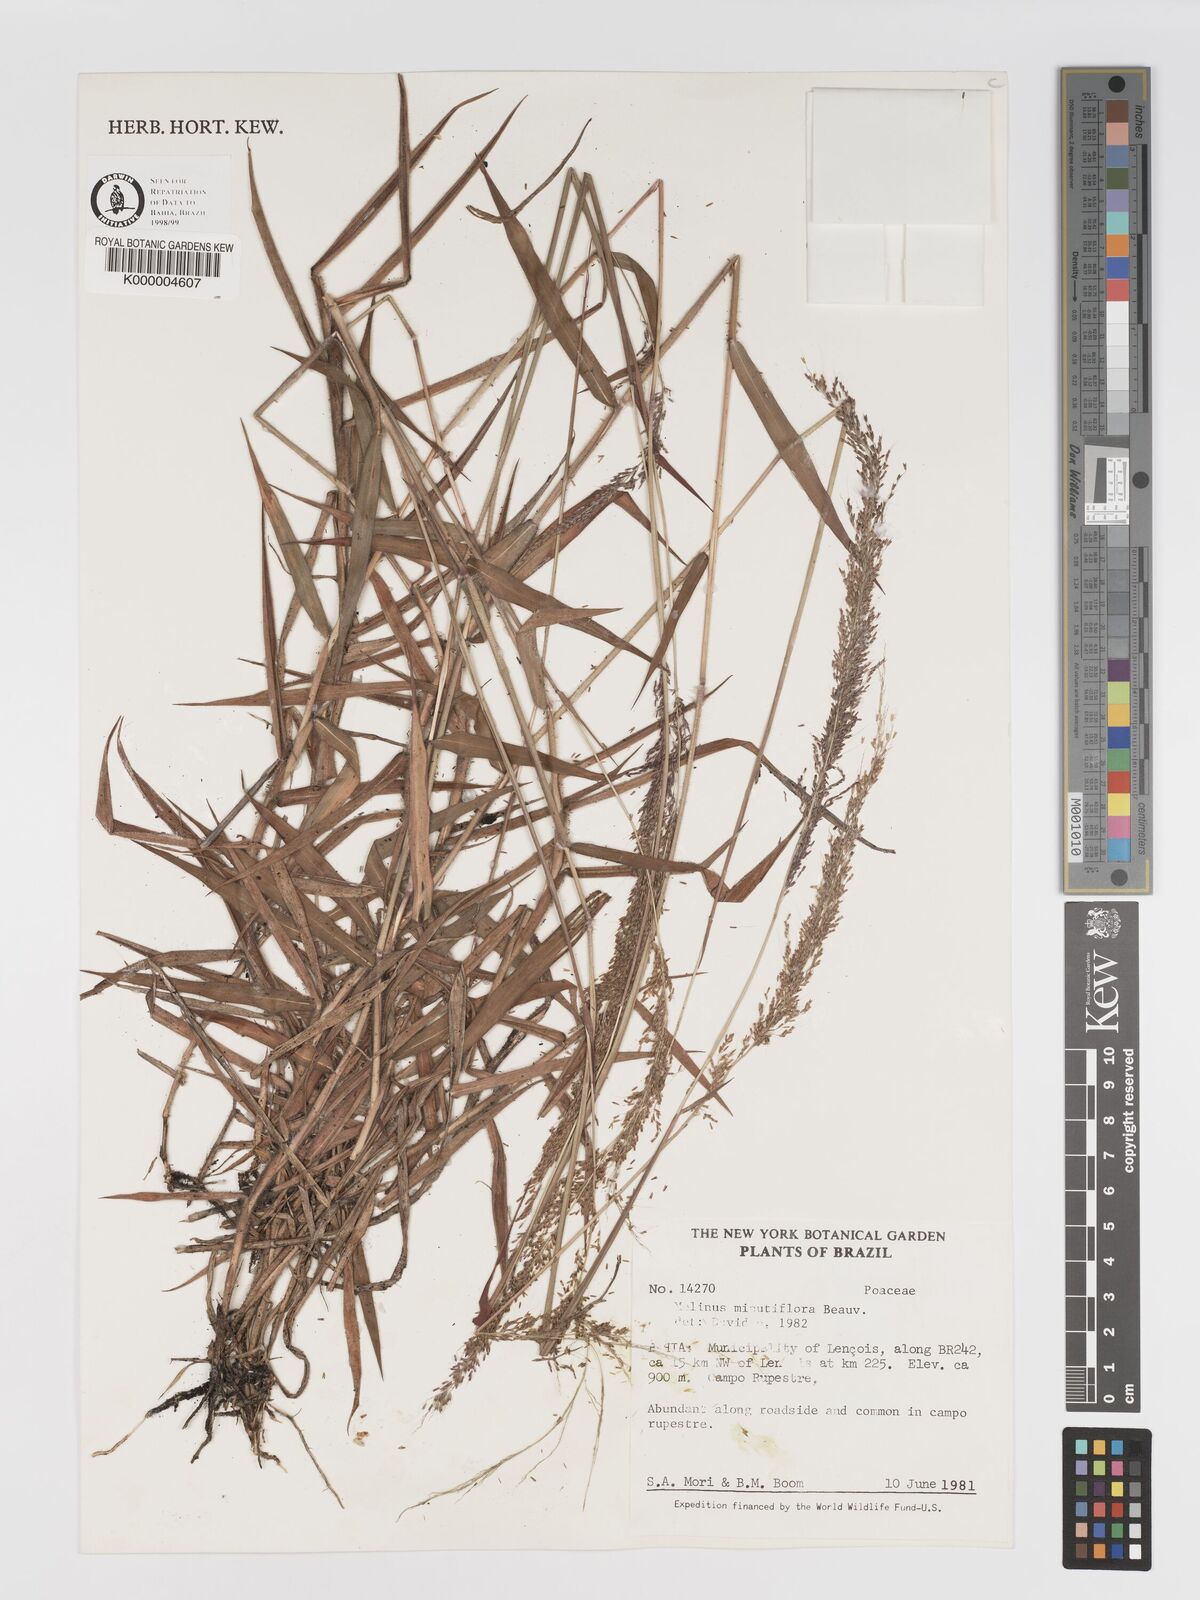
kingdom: Plantae
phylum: Tracheophyta
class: Liliopsida
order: Poales
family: Poaceae
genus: Melinis
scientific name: Melinis minutiflora
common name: Molassesgrass
